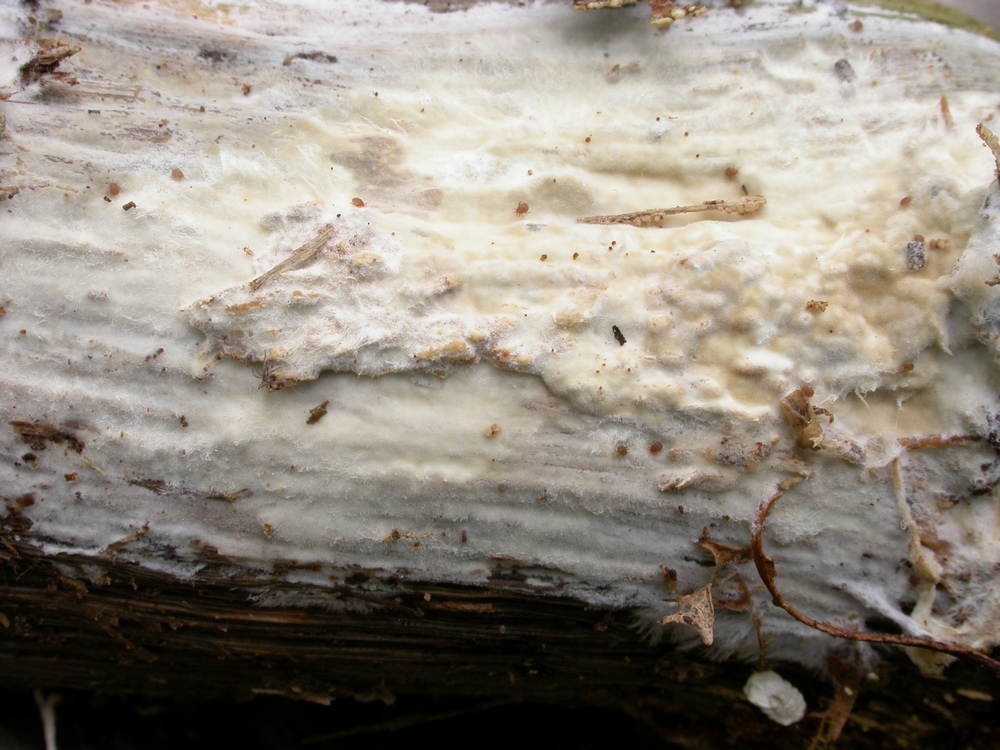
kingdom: Fungi
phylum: Basidiomycota
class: Agaricomycetes
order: Polyporales
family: Phanerochaetaceae
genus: Phanerochaete
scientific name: Phanerochaete velutina
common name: dunet randtråd
